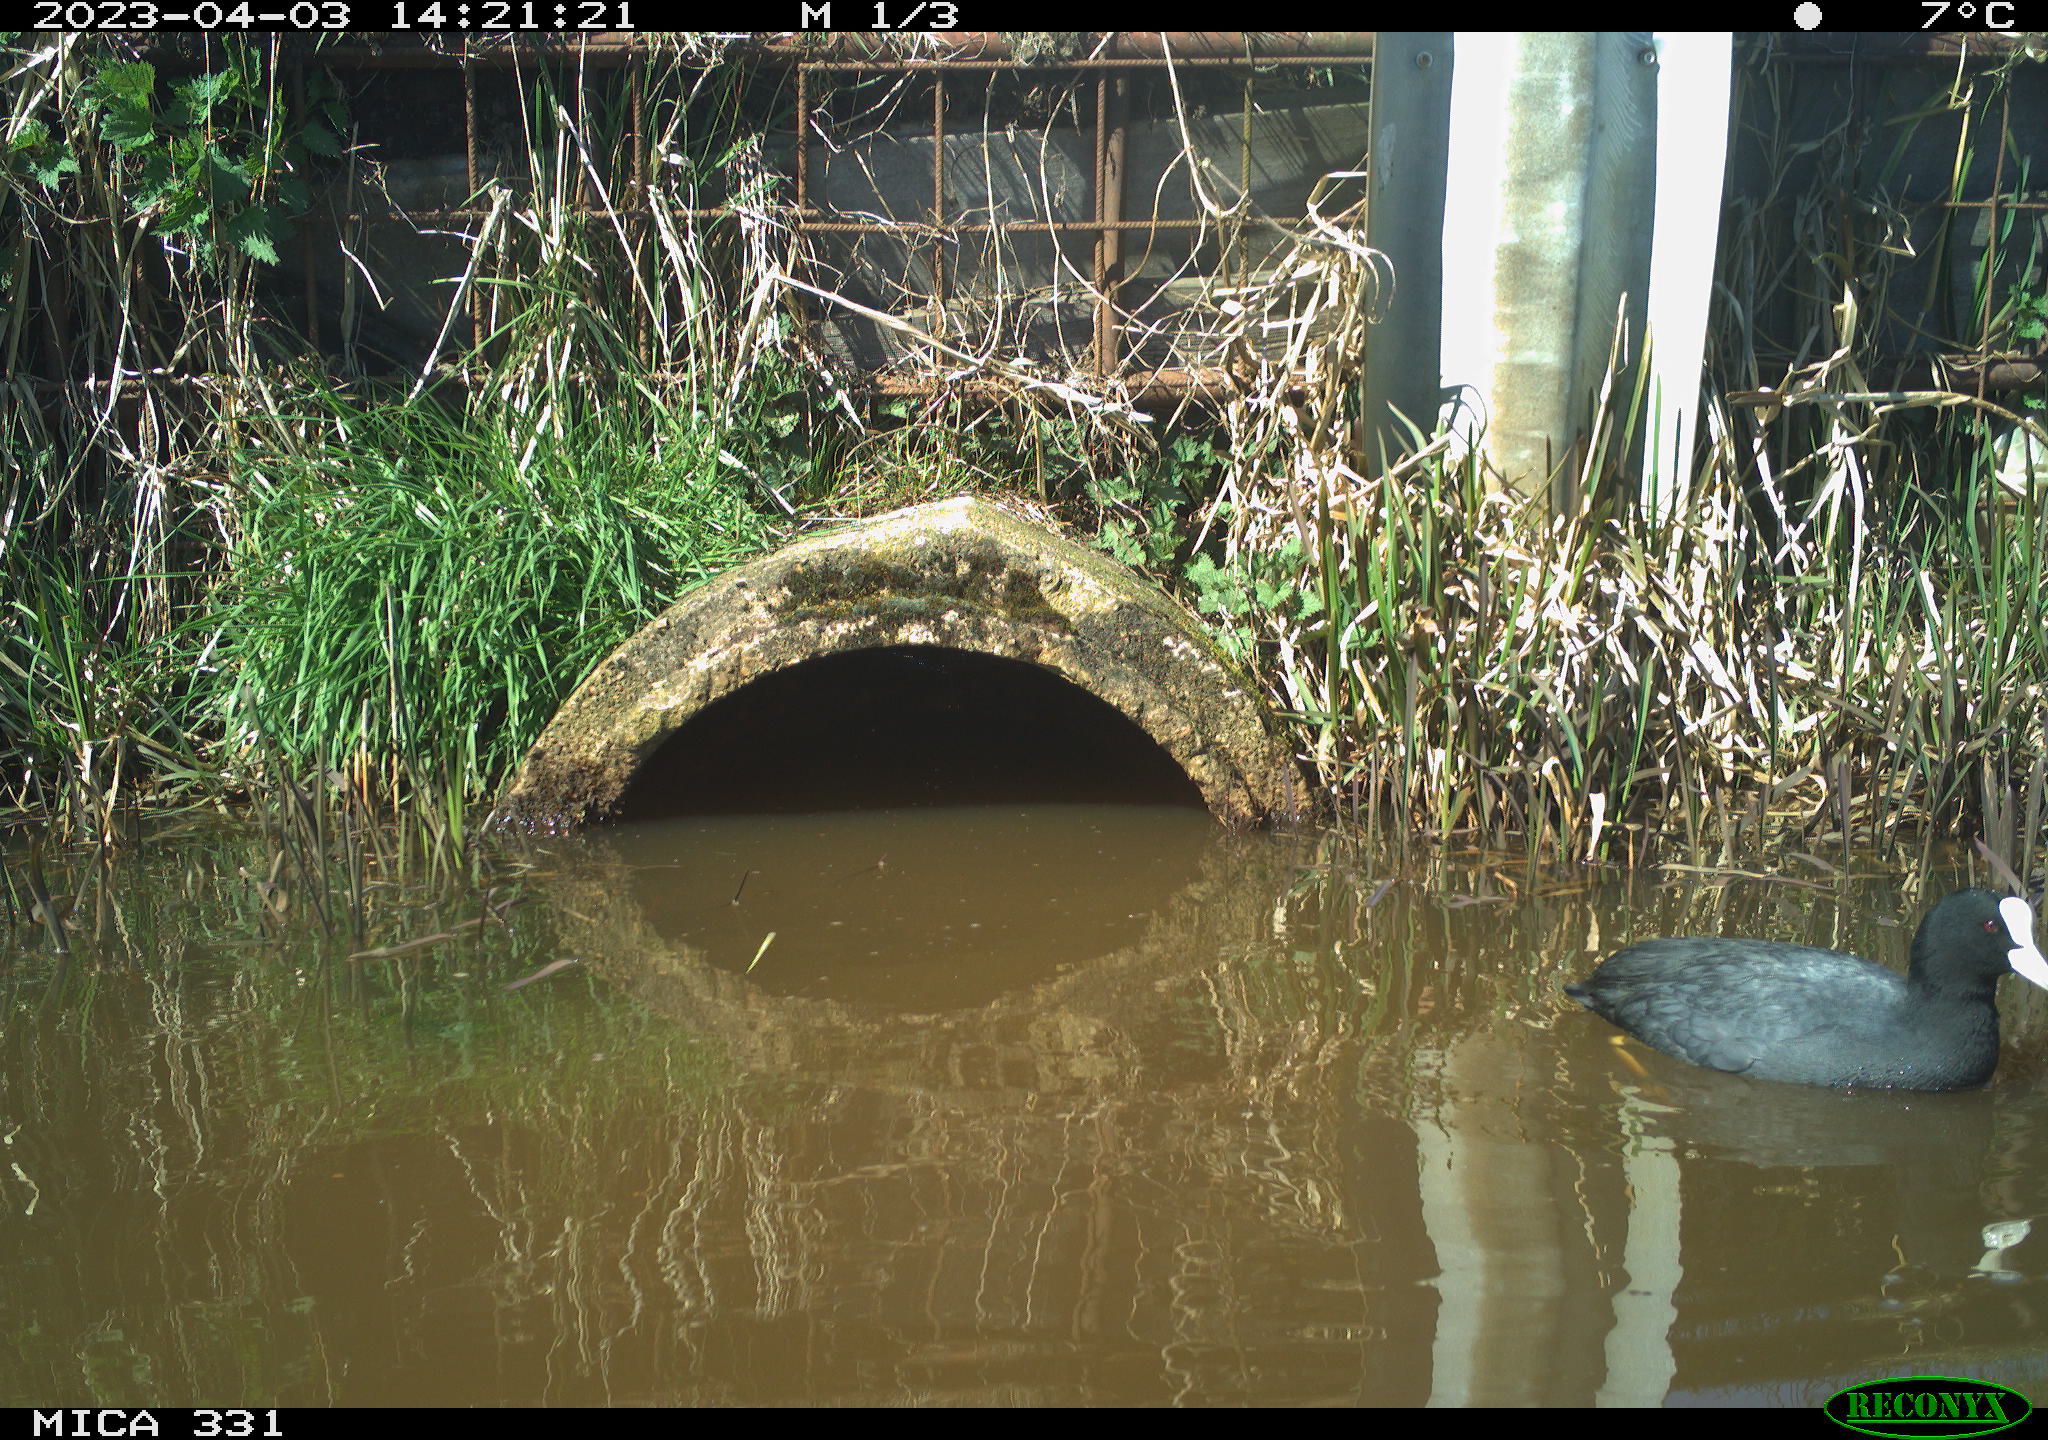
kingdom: Animalia
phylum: Chordata
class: Aves
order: Gruiformes
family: Rallidae
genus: Fulica
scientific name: Fulica atra
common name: Eurasian coot
